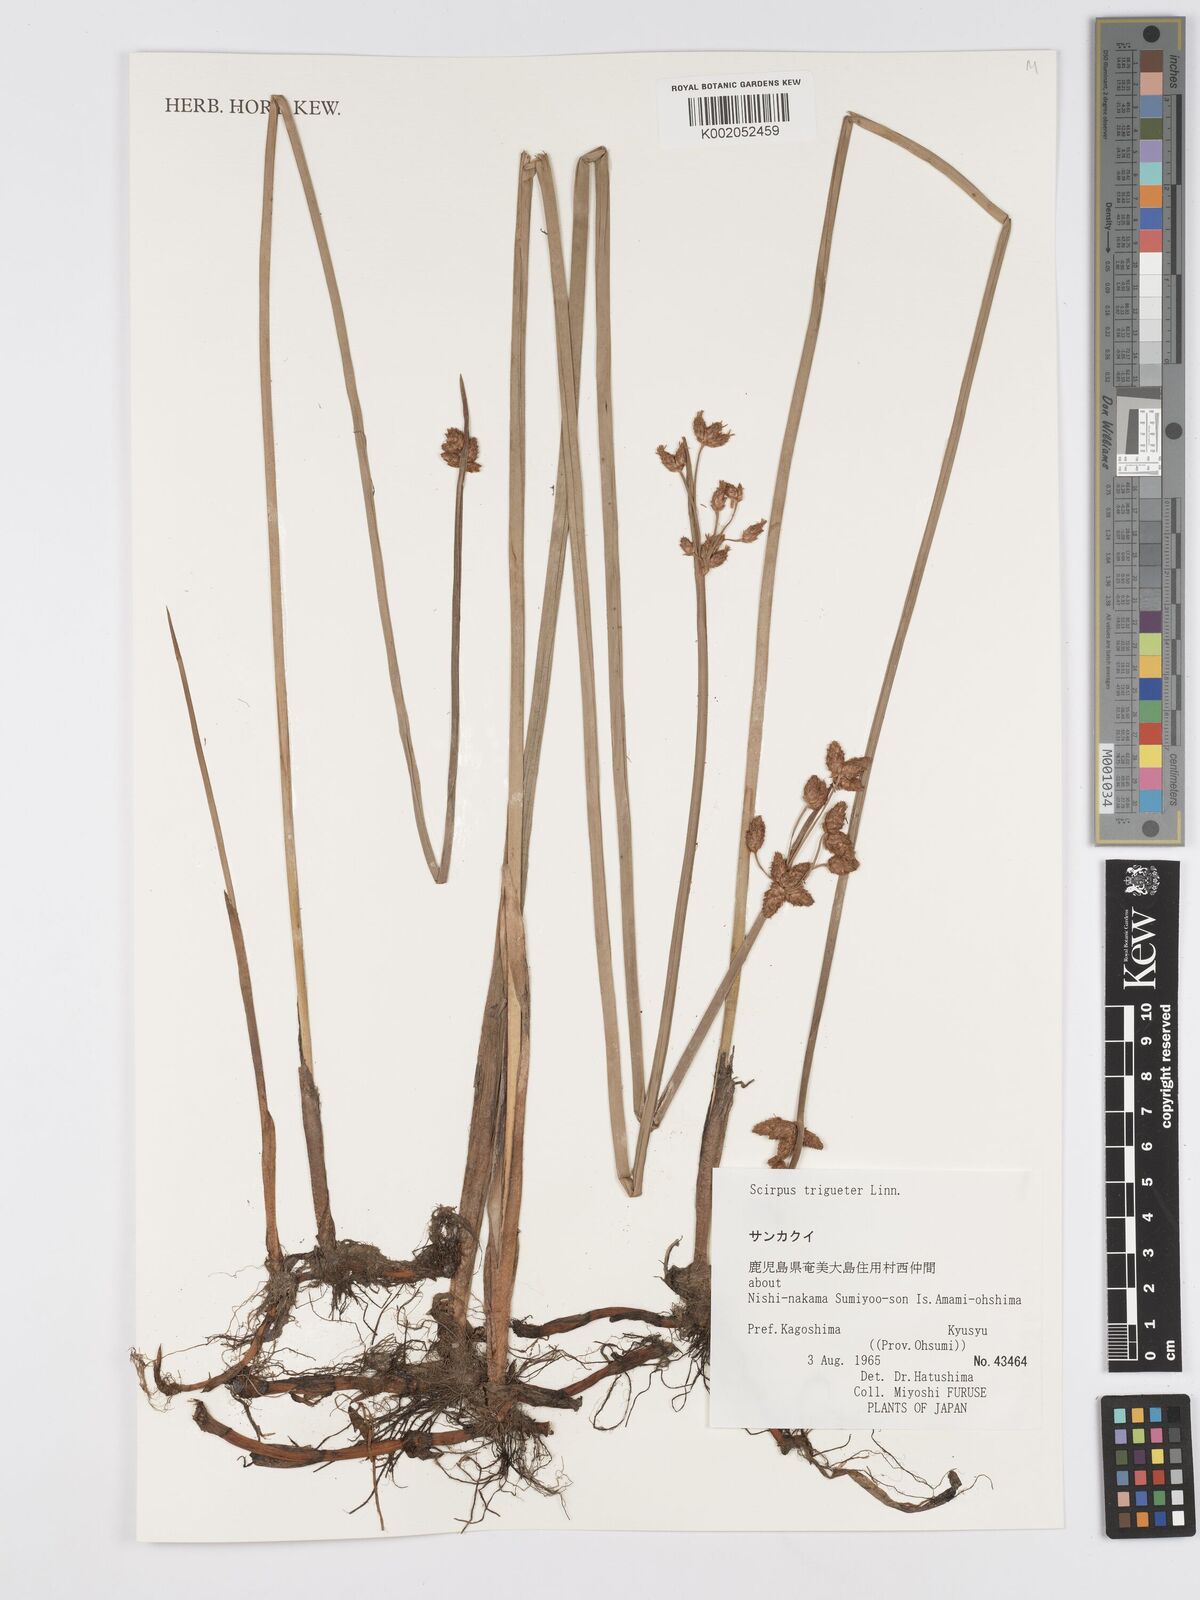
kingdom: Plantae
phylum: Tracheophyta
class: Liliopsida
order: Poales
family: Cyperaceae
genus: Schoenoplectus
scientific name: Schoenoplectus triqueter
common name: Triangular club-rush
